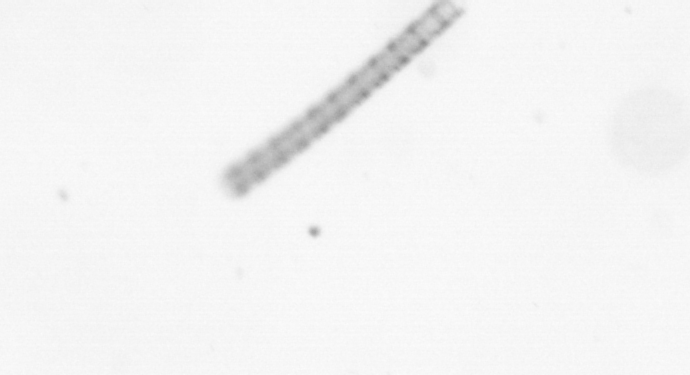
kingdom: Chromista
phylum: Ochrophyta
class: Bacillariophyceae
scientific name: Bacillariophyceae
